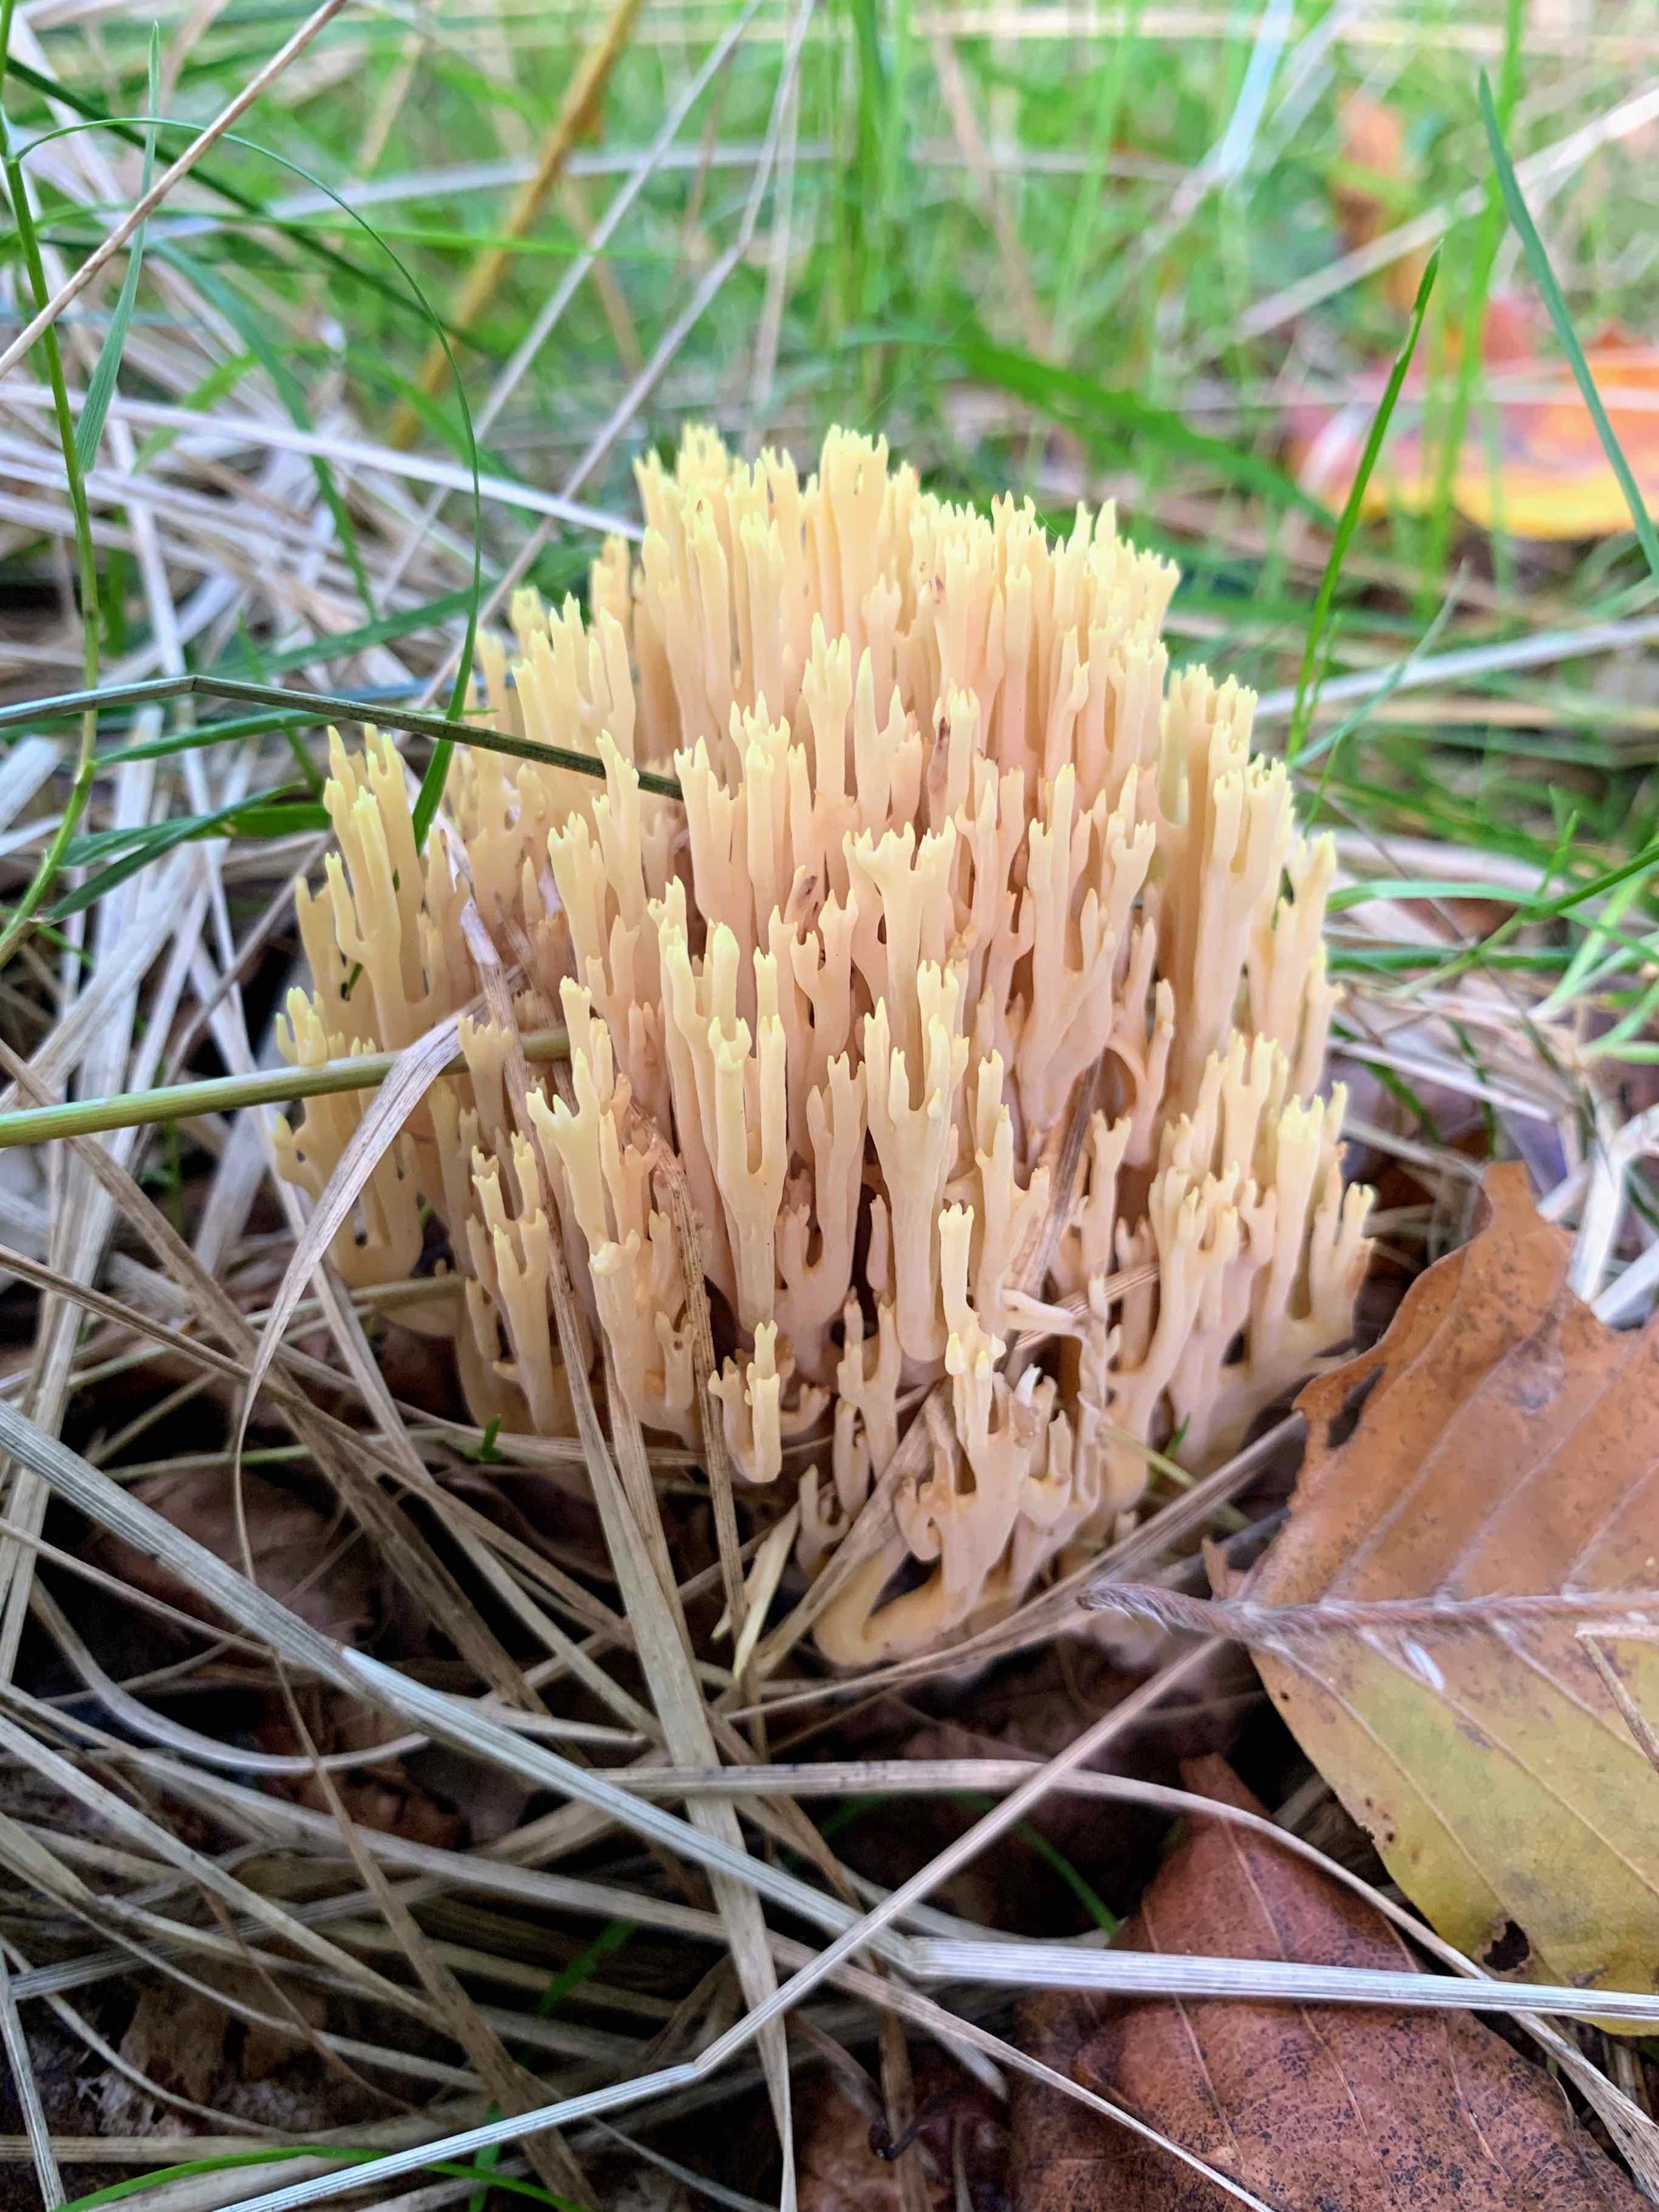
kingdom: Fungi
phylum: Basidiomycota
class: Agaricomycetes
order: Gomphales
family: Gomphaceae
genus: Ramaria
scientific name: Ramaria stricta
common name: rank koralsvamp
